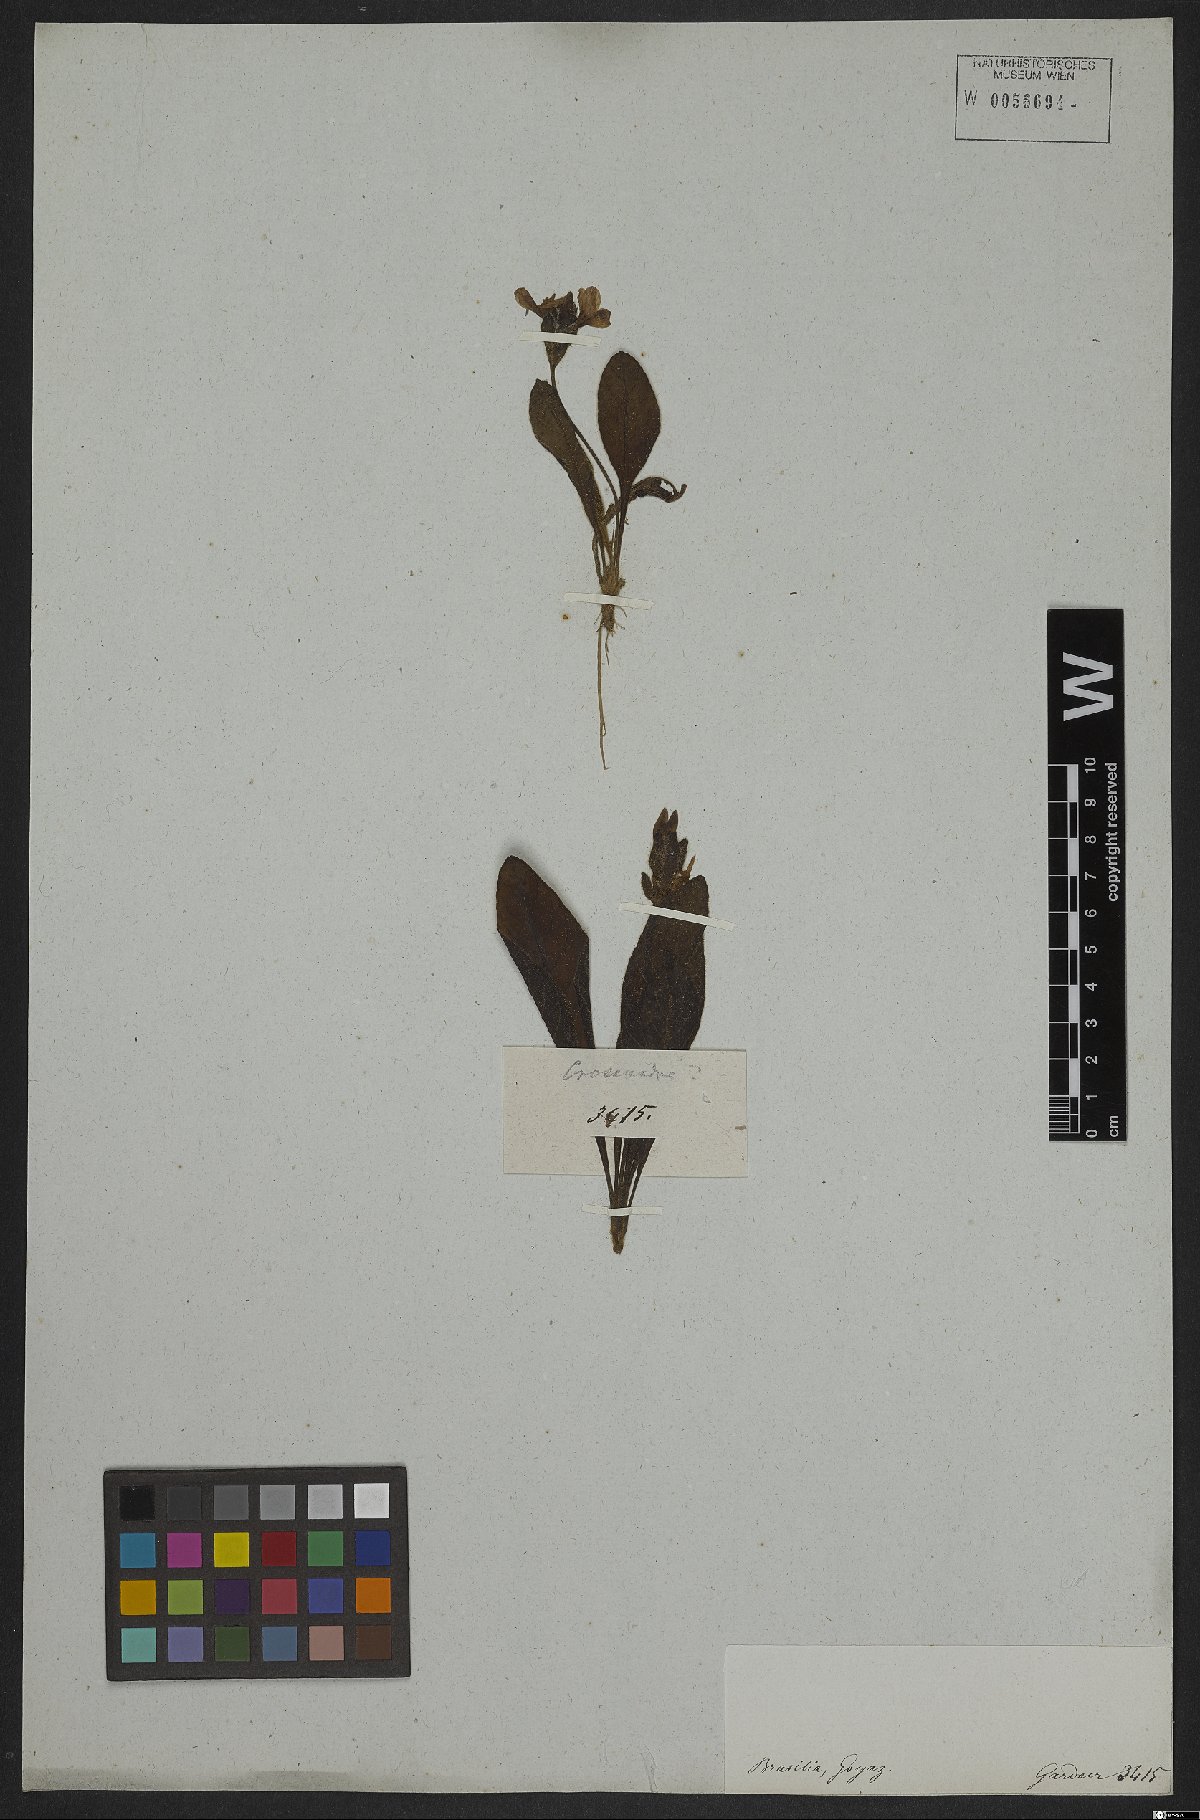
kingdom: Plantae
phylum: Tracheophyta
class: Magnoliopsida
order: Lamiales
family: Acanthaceae
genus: Crossandra
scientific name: Crossandra
